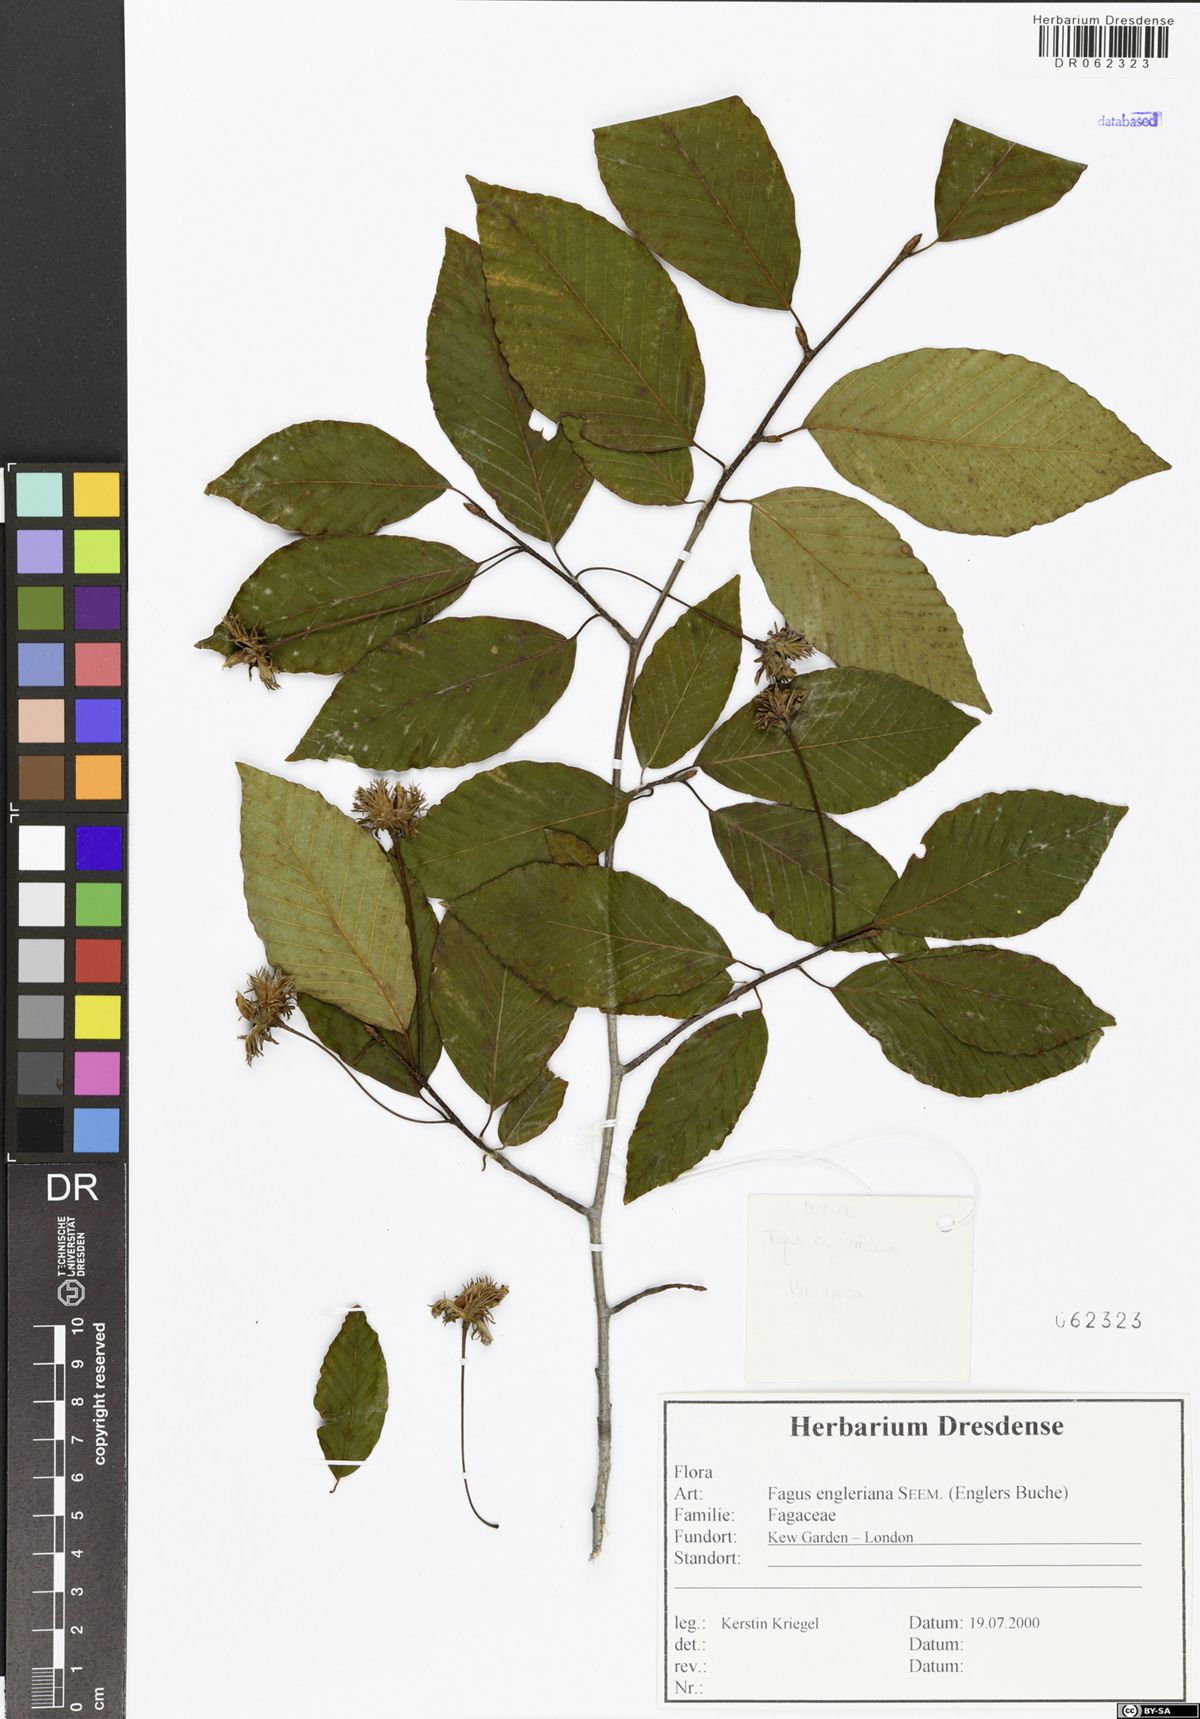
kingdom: Plantae
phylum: Tracheophyta
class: Magnoliopsida
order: Fagales
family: Fagaceae
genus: Fagus
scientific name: Fagus engleriana
